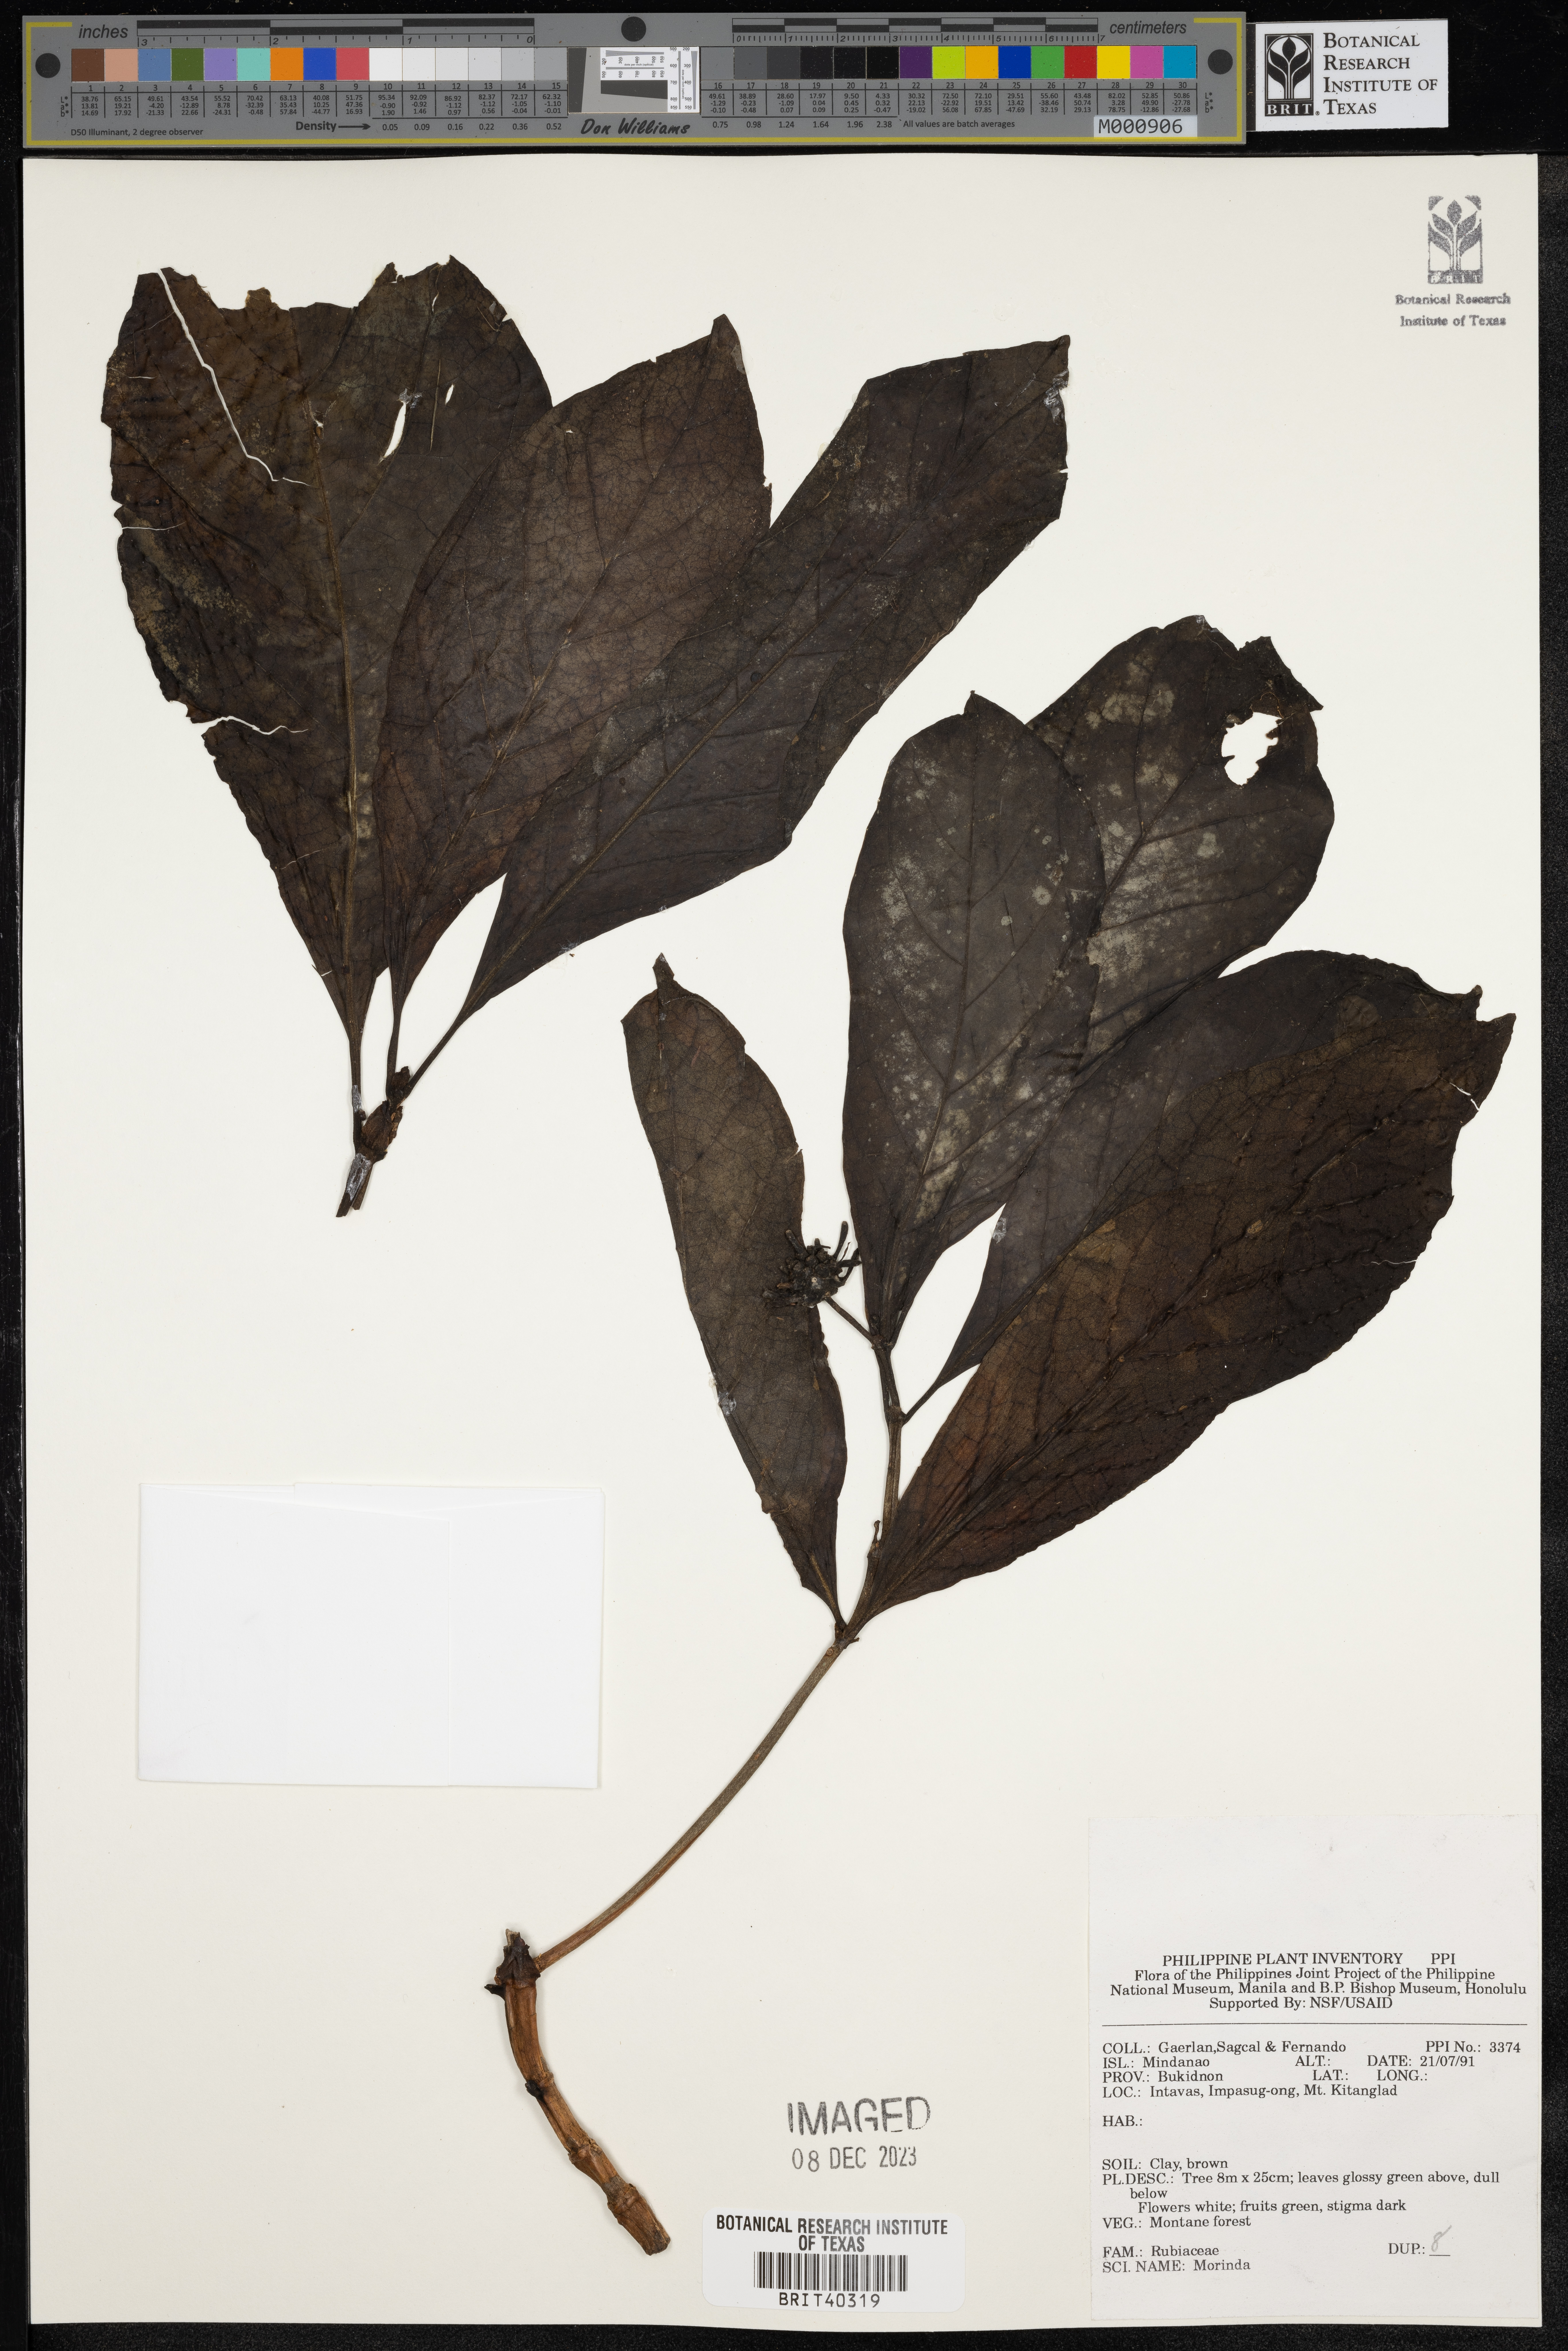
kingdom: Plantae
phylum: Tracheophyta
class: Magnoliopsida
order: Gentianales
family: Rubiaceae
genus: Morinda
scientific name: Morinda
